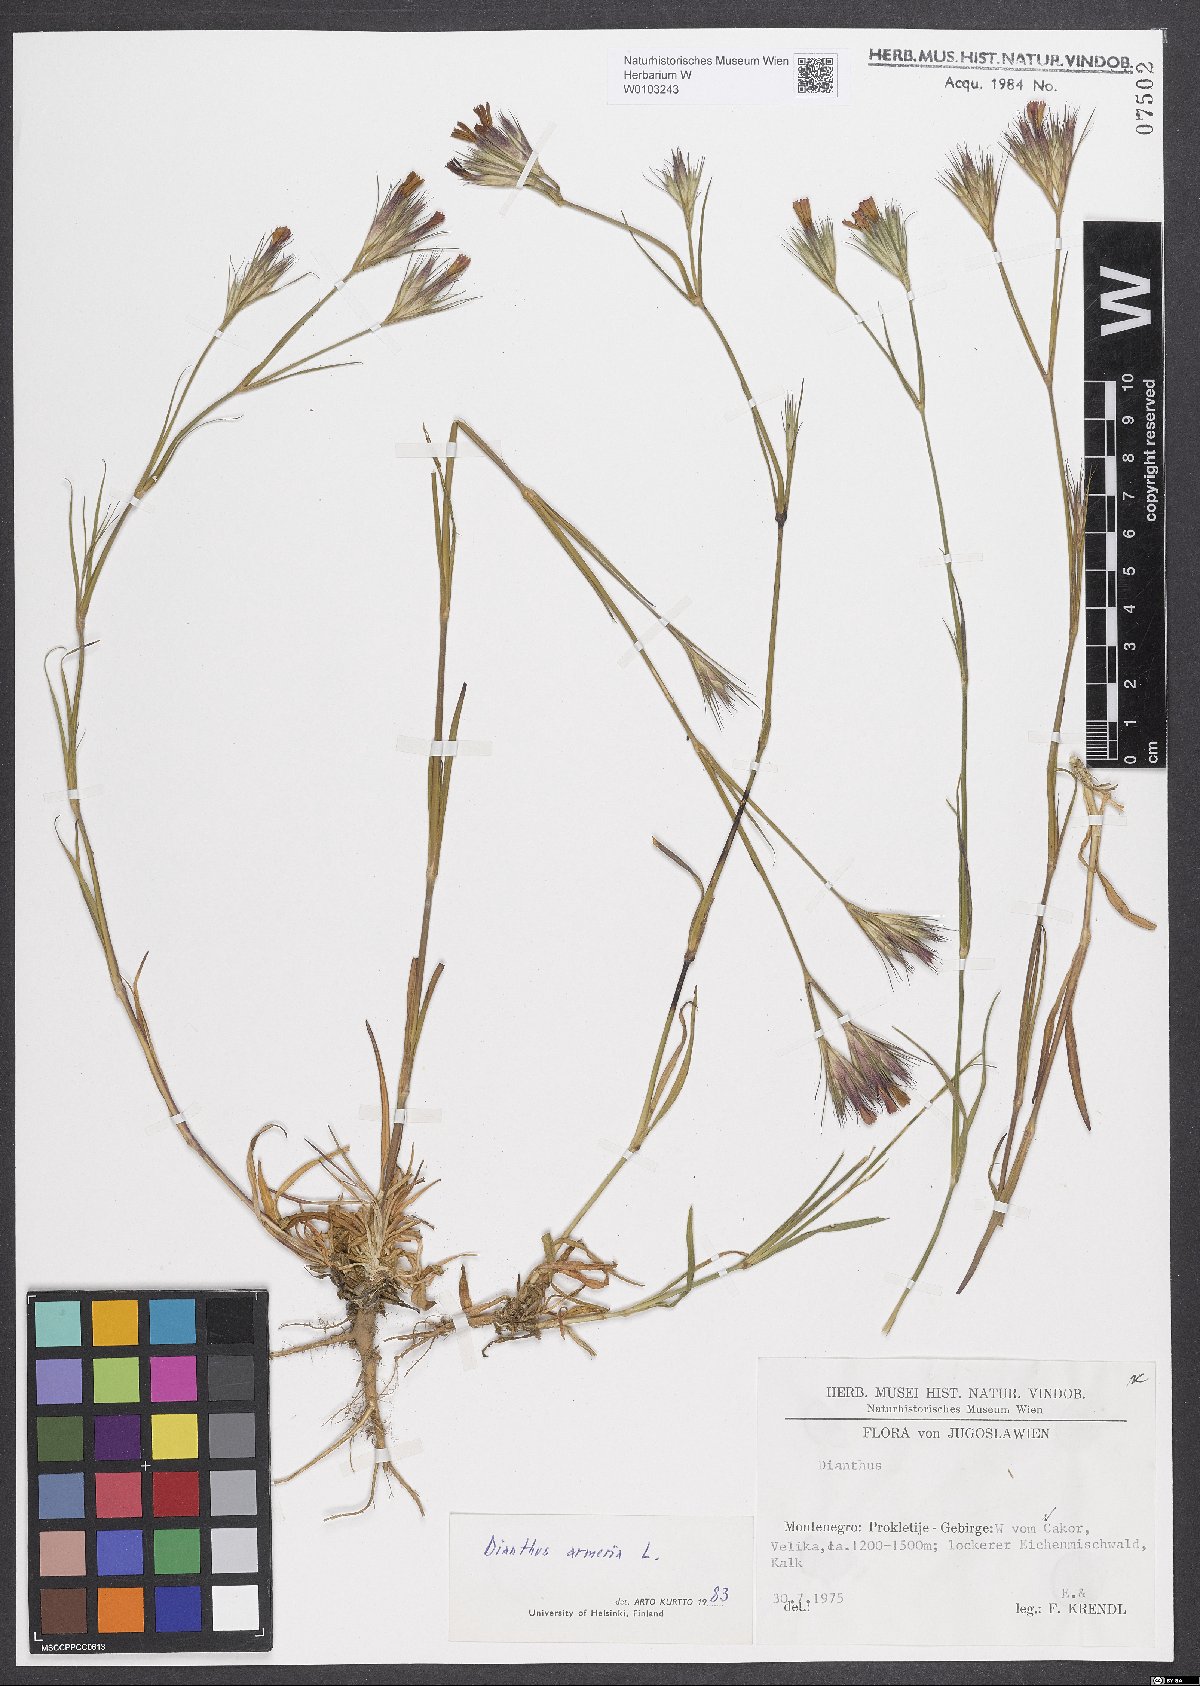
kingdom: Plantae
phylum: Tracheophyta
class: Magnoliopsida
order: Caryophyllales
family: Caryophyllaceae
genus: Dianthus
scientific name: Dianthus armeria
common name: Deptford pink
